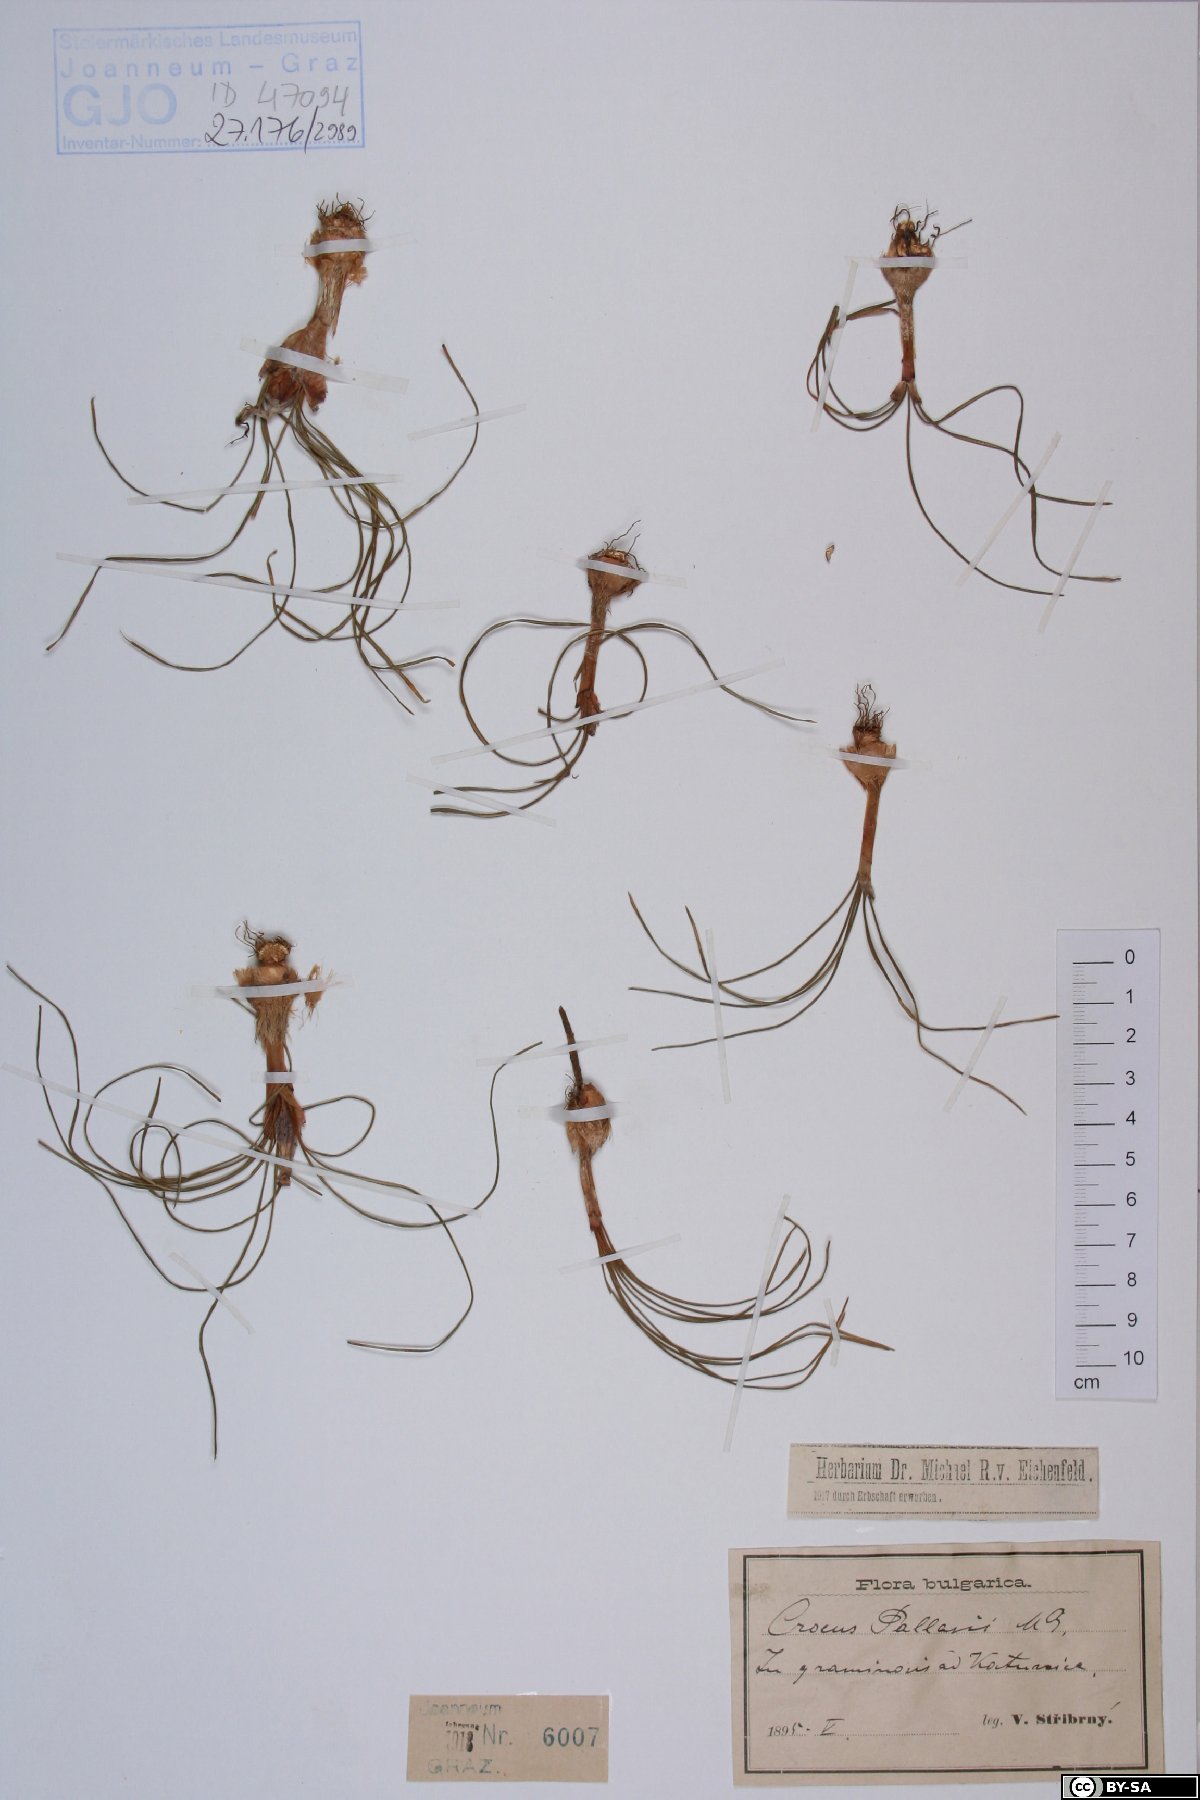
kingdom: Plantae
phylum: Tracheophyta
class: Liliopsida
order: Asparagales
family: Iridaceae
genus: Crocus
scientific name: Crocus pallasii
